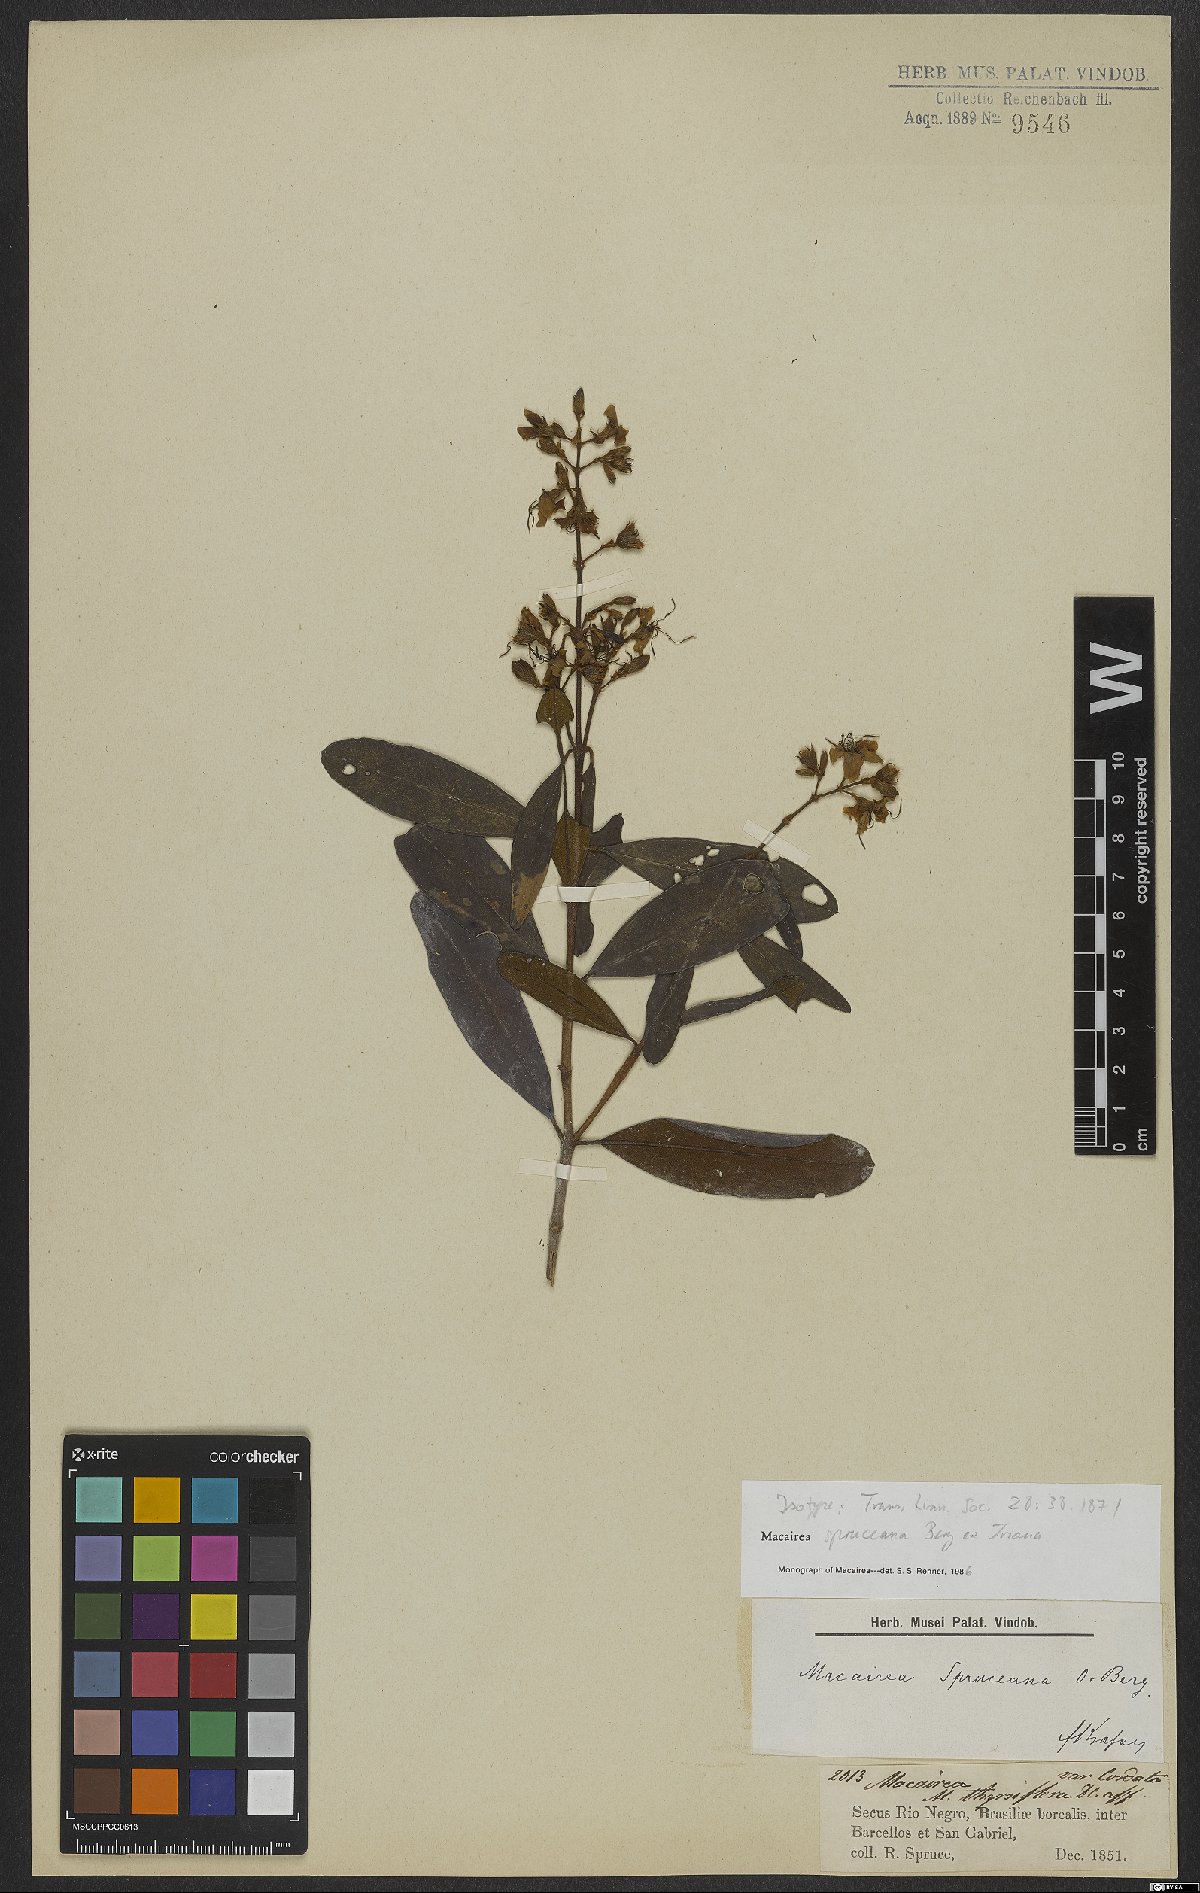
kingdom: Plantae
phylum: Tracheophyta
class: Magnoliopsida
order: Myrtales
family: Melastomataceae
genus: Macairea
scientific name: Macairea spruceana
